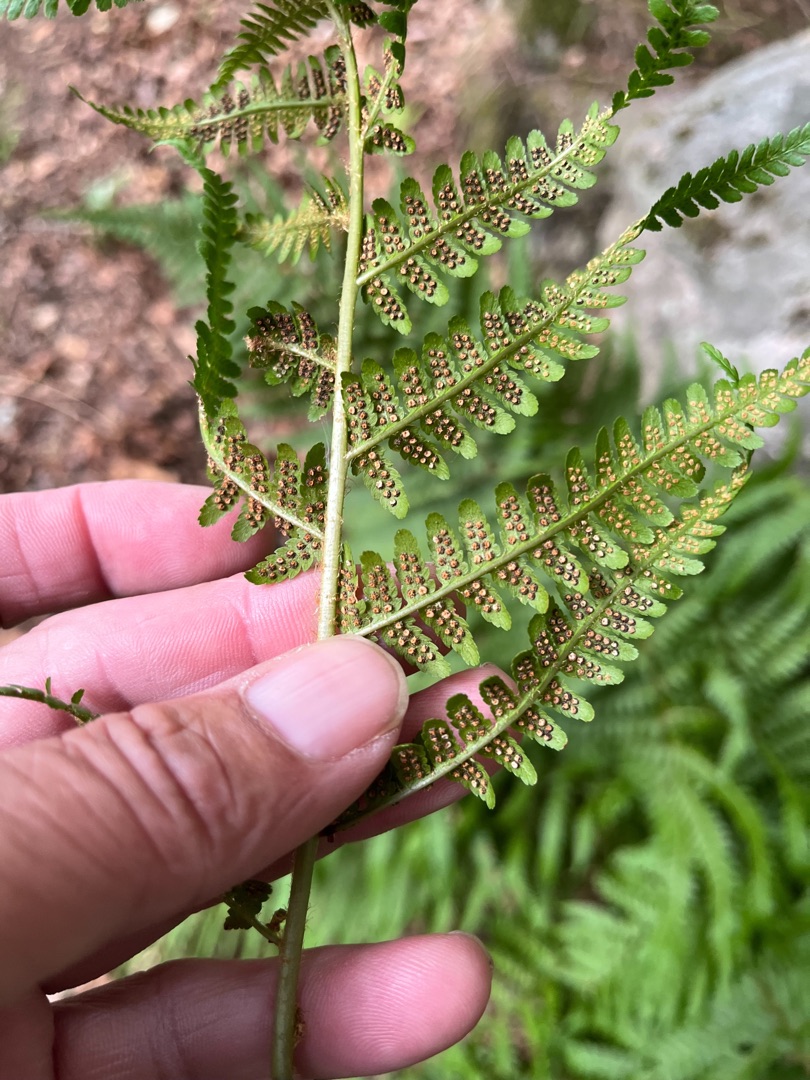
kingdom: Plantae
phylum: Tracheophyta
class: Polypodiopsida
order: Polypodiales
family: Dryopteridaceae
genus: Dryopteris
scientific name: Dryopteris filix-mas
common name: Almindelig mangeløv
